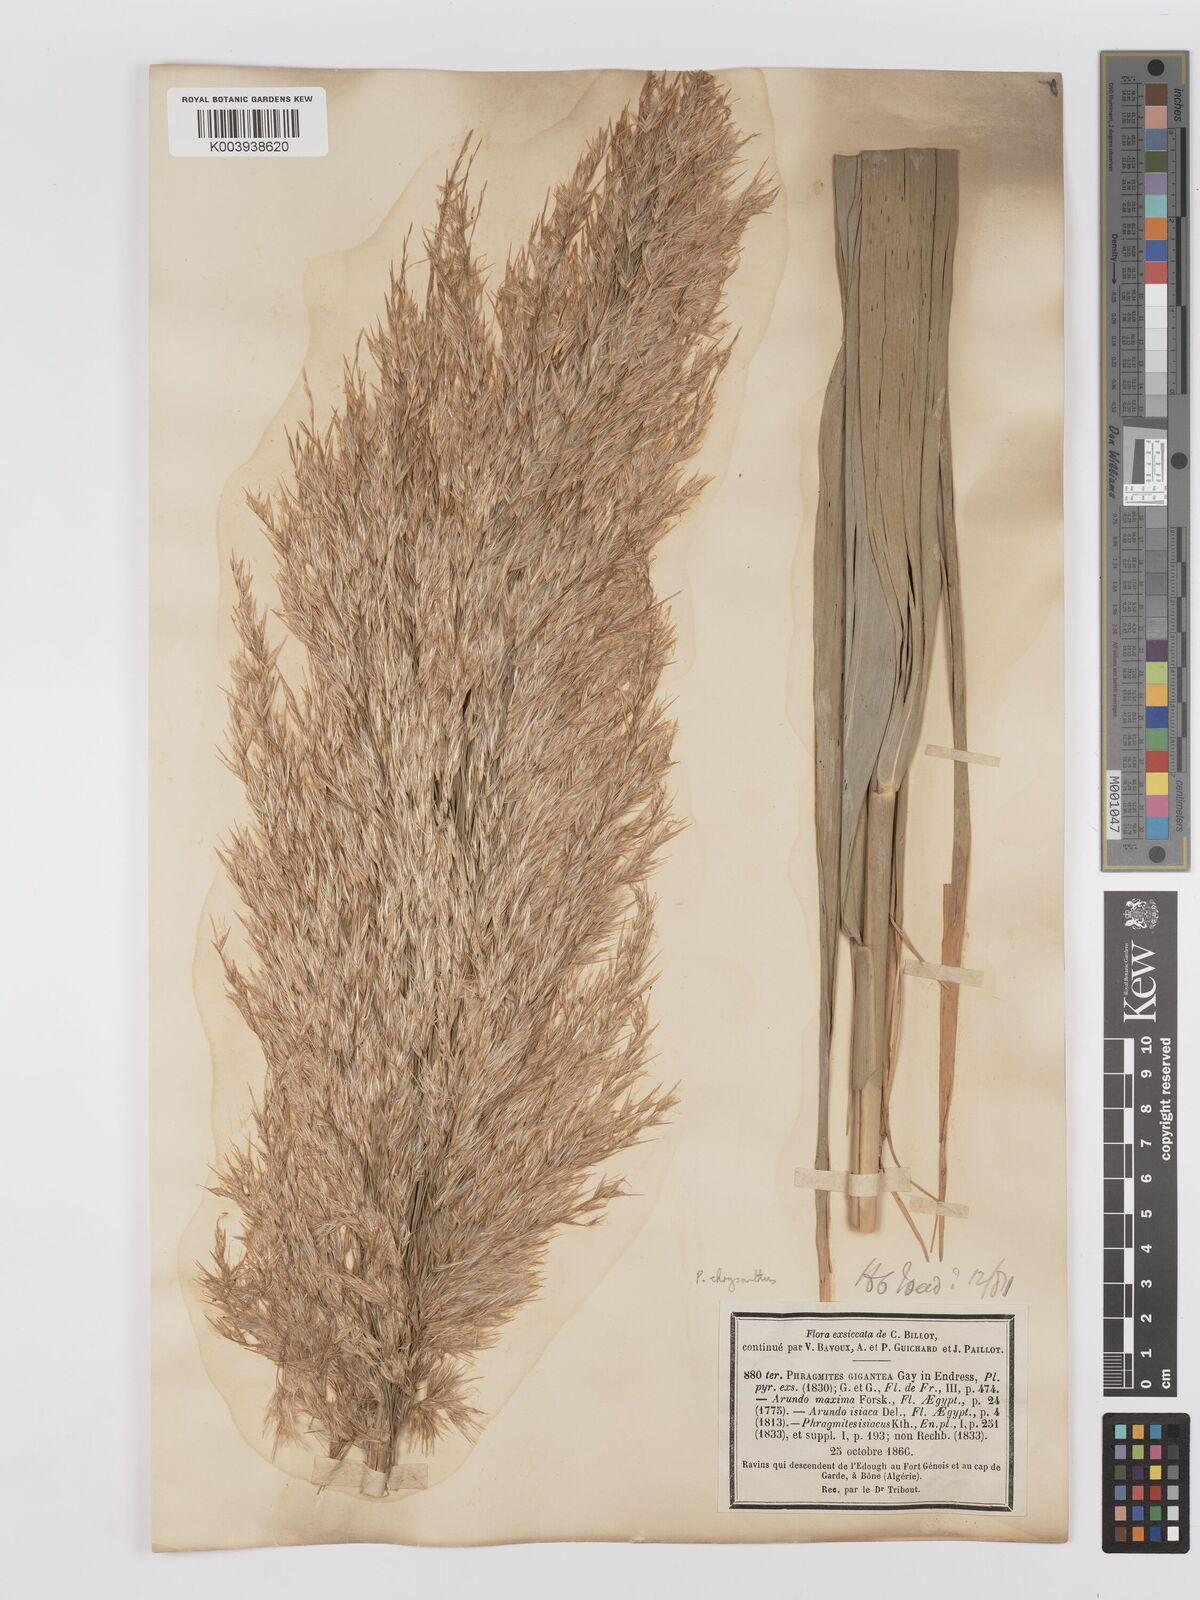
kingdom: Plantae
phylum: Tracheophyta
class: Liliopsida
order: Poales
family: Poaceae
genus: Phragmites
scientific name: Phragmites australis
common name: Common reed
